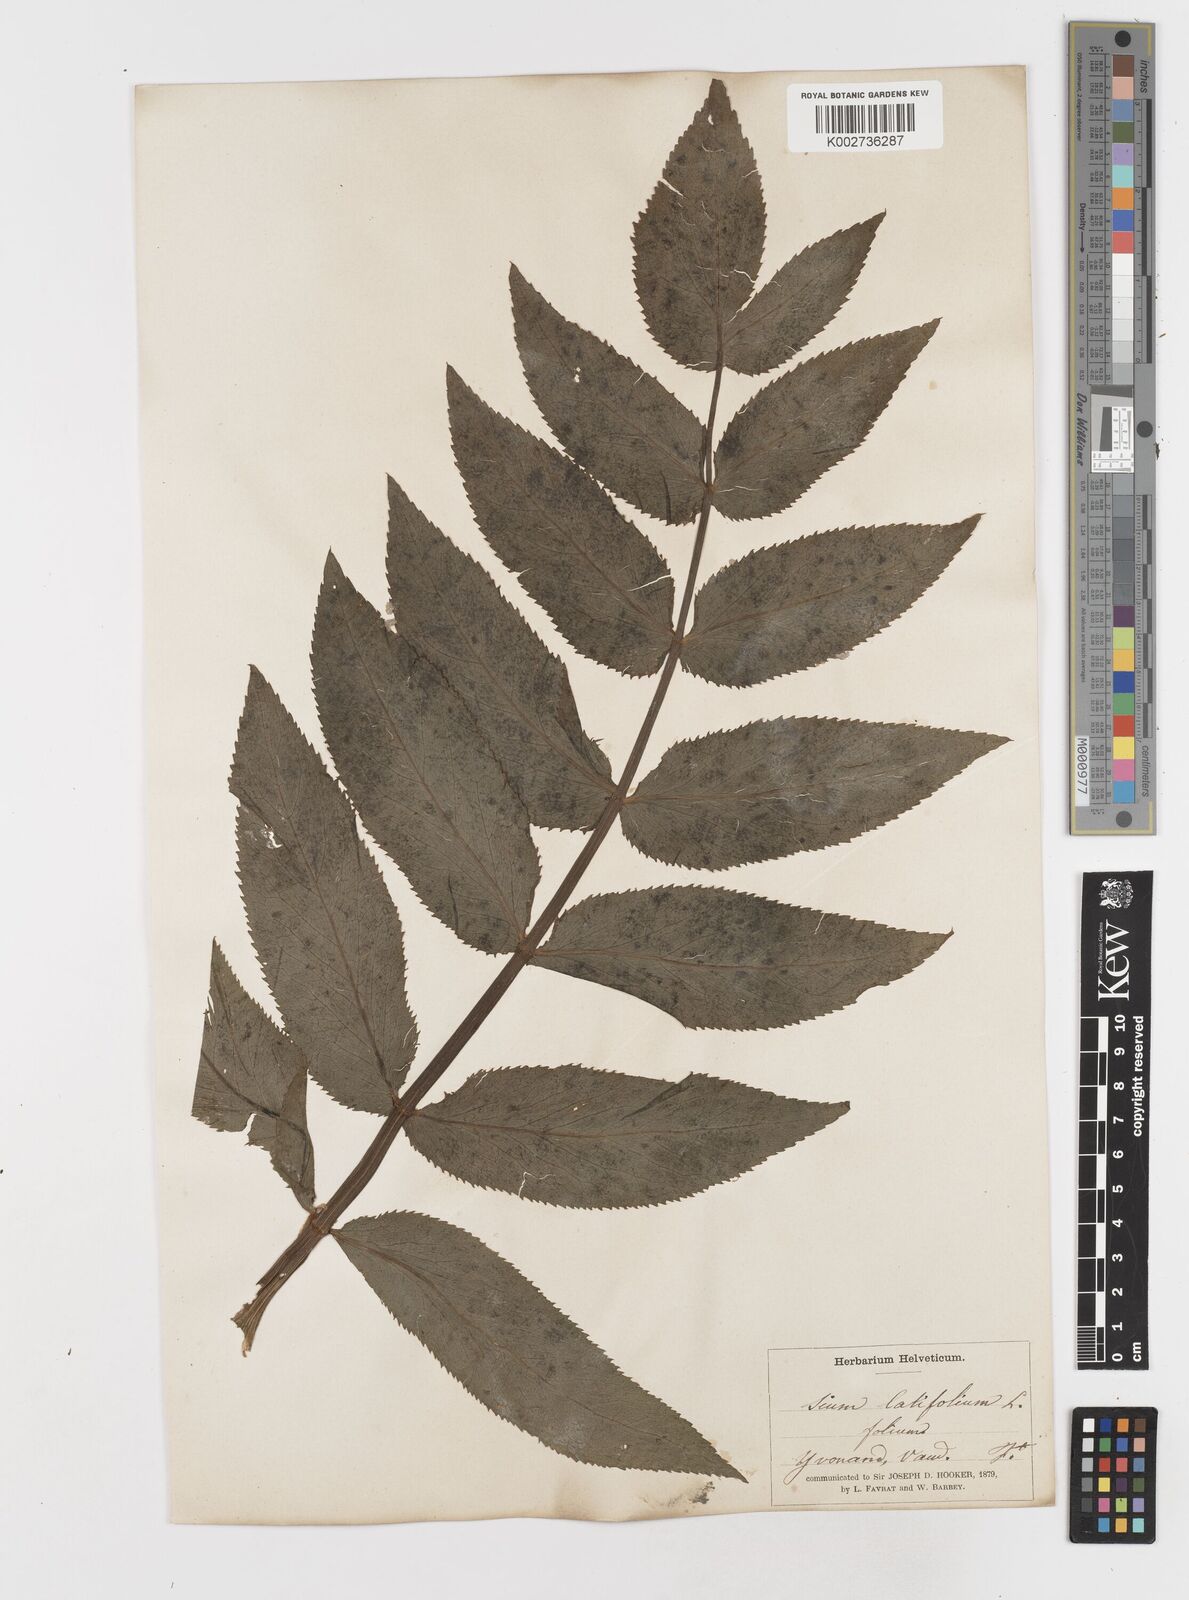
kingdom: Plantae
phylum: Tracheophyta
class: Magnoliopsida
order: Apiales
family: Apiaceae
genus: Sium
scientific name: Sium latifolium
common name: Greater water-parsnip
